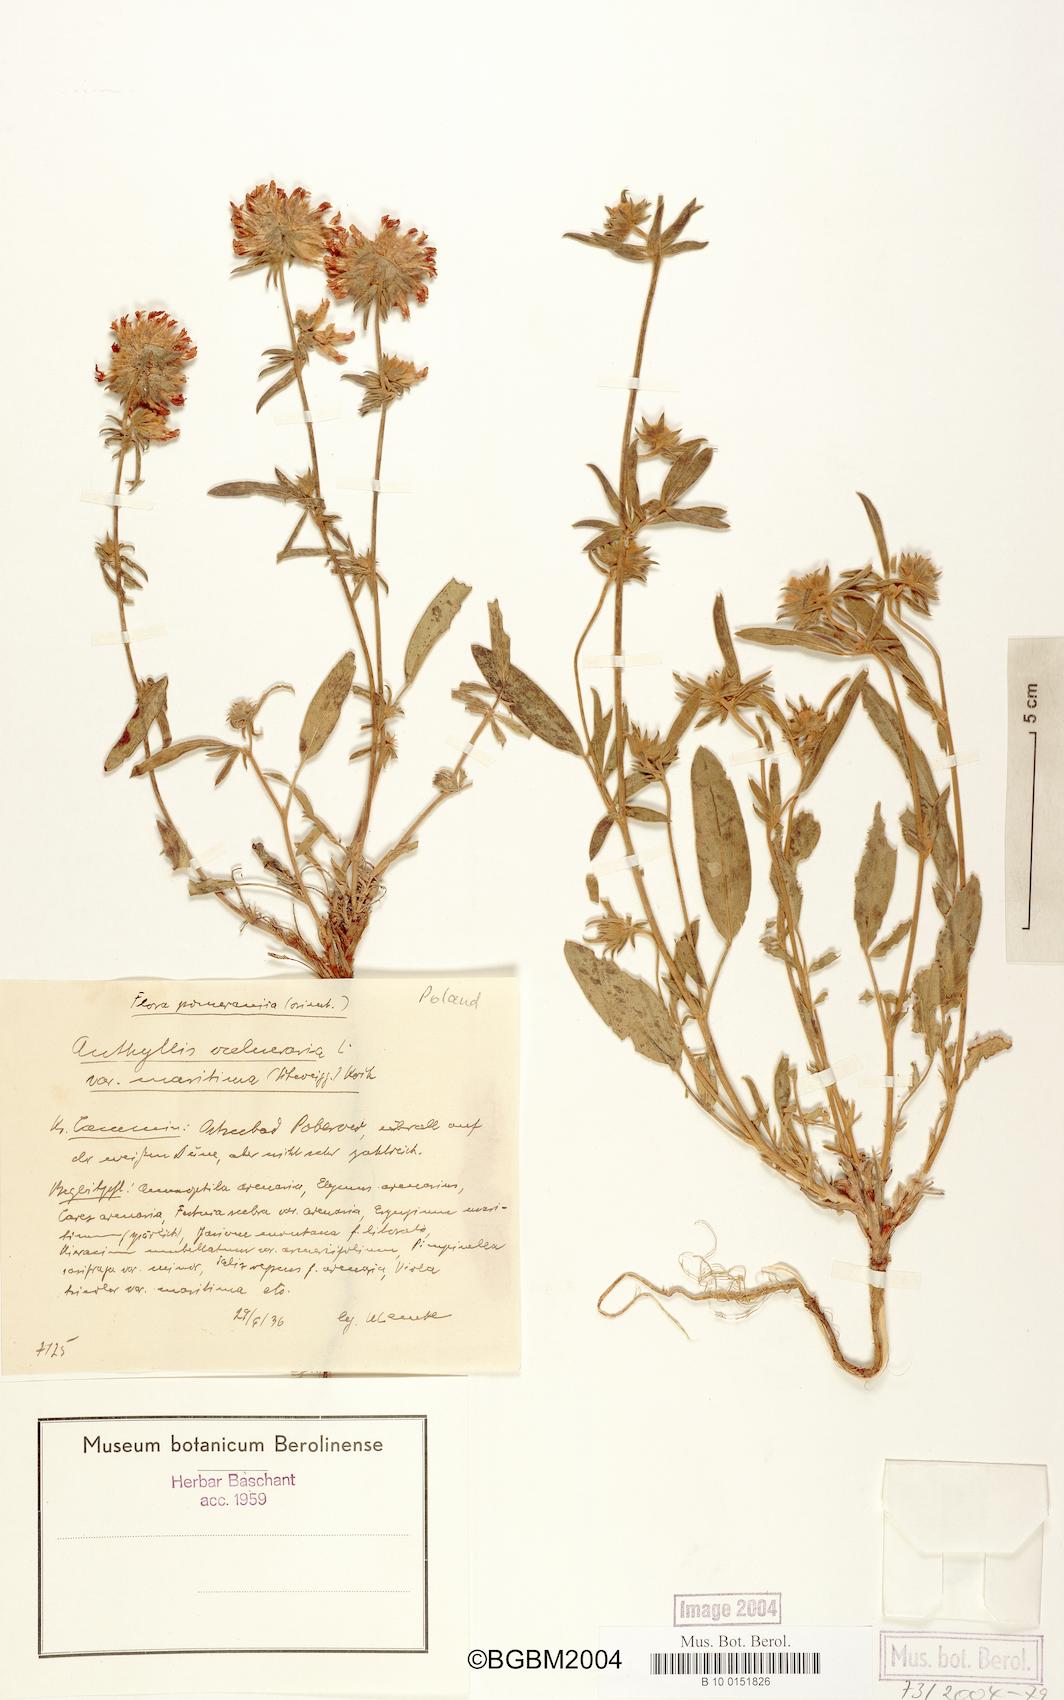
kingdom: Plantae
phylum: Tracheophyta
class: Magnoliopsida
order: Fabales
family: Fabaceae
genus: Anthyllis
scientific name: Anthyllis vulneraria
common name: Kidney vetch
